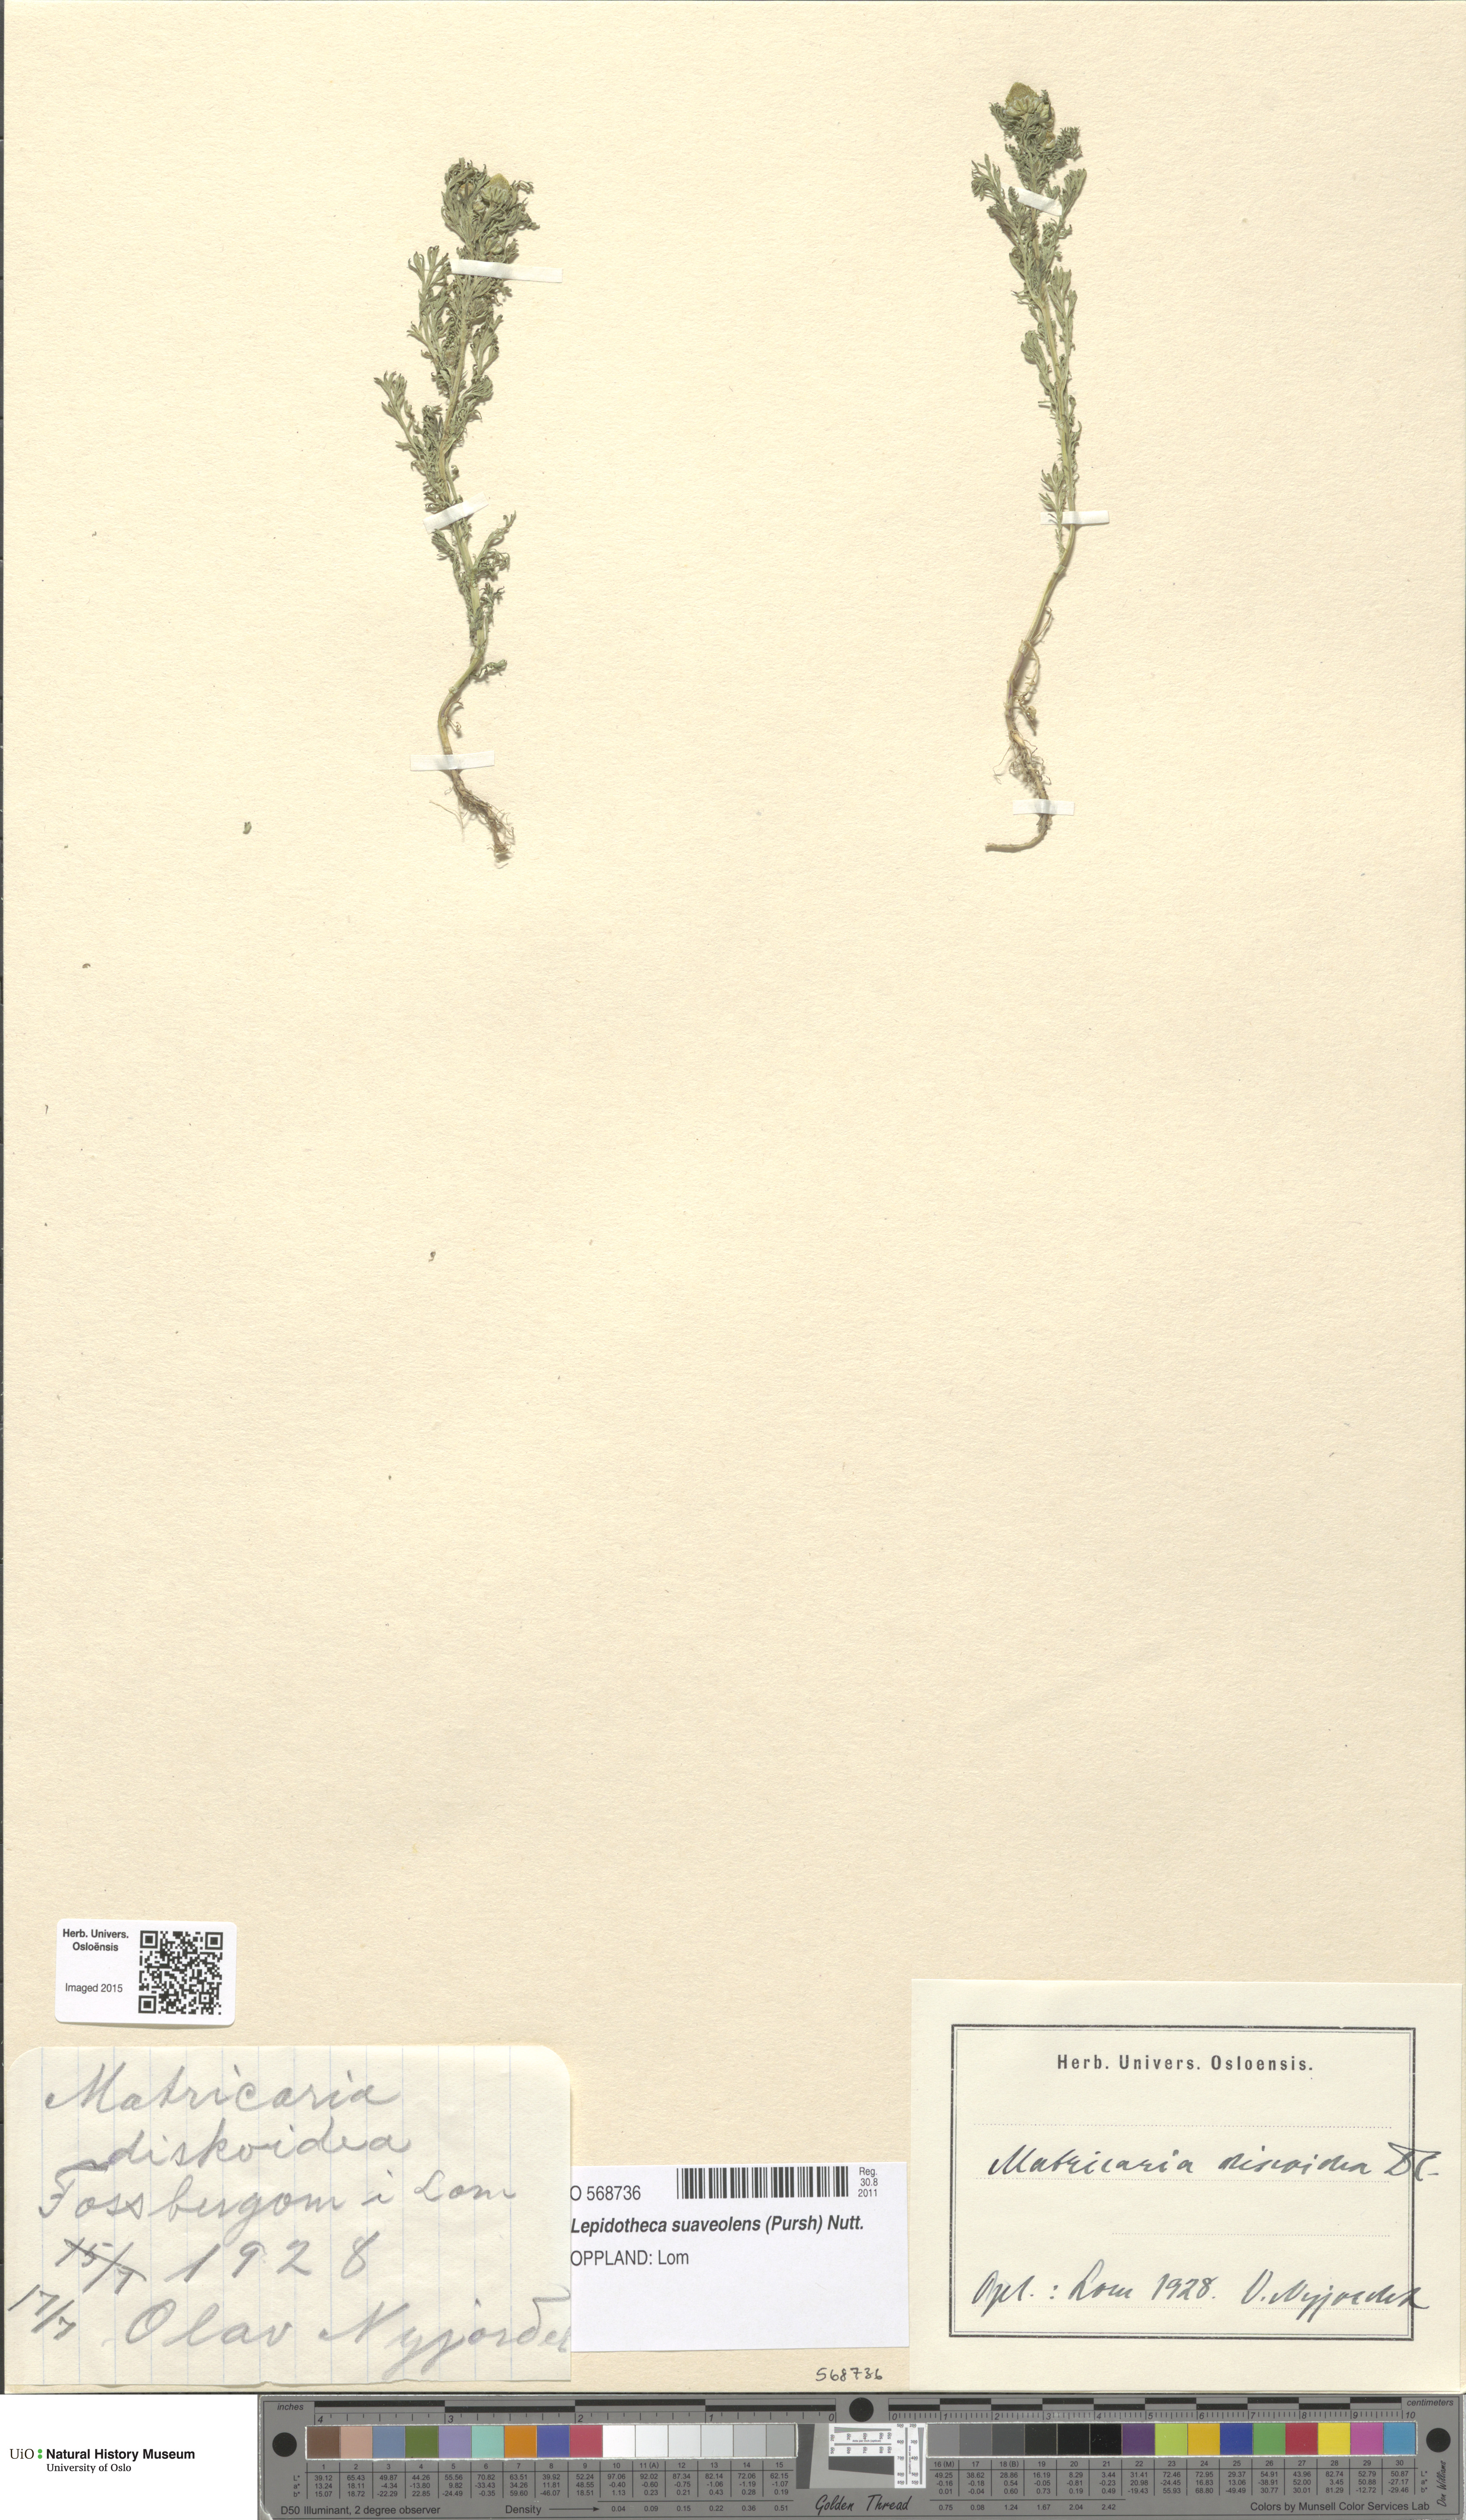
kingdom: Plantae
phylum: Tracheophyta
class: Magnoliopsida
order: Asterales
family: Asteraceae
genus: Matricaria
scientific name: Matricaria discoidea
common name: Disc mayweed
